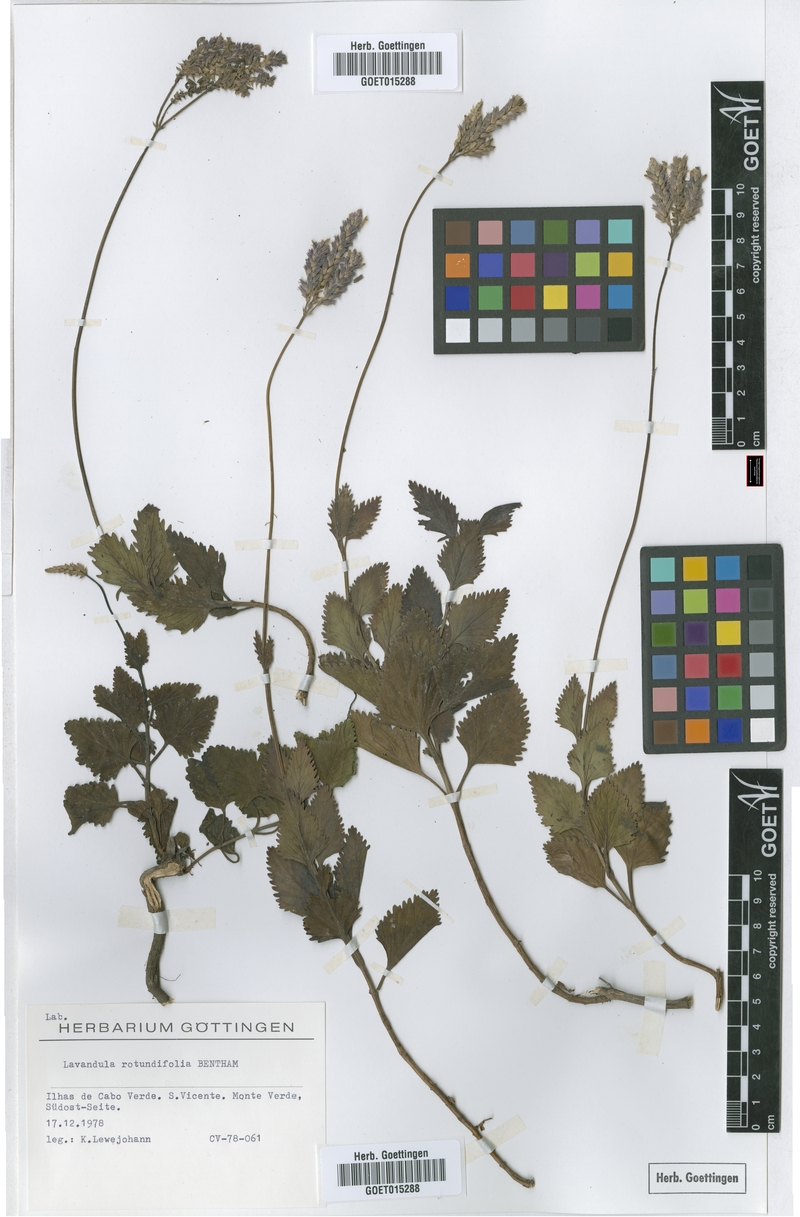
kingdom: Plantae
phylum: Tracheophyta
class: Magnoliopsida
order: Lamiales
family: Lamiaceae
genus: Lavandula
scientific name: Lavandula rotundifolia
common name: Round-leaf lavender
